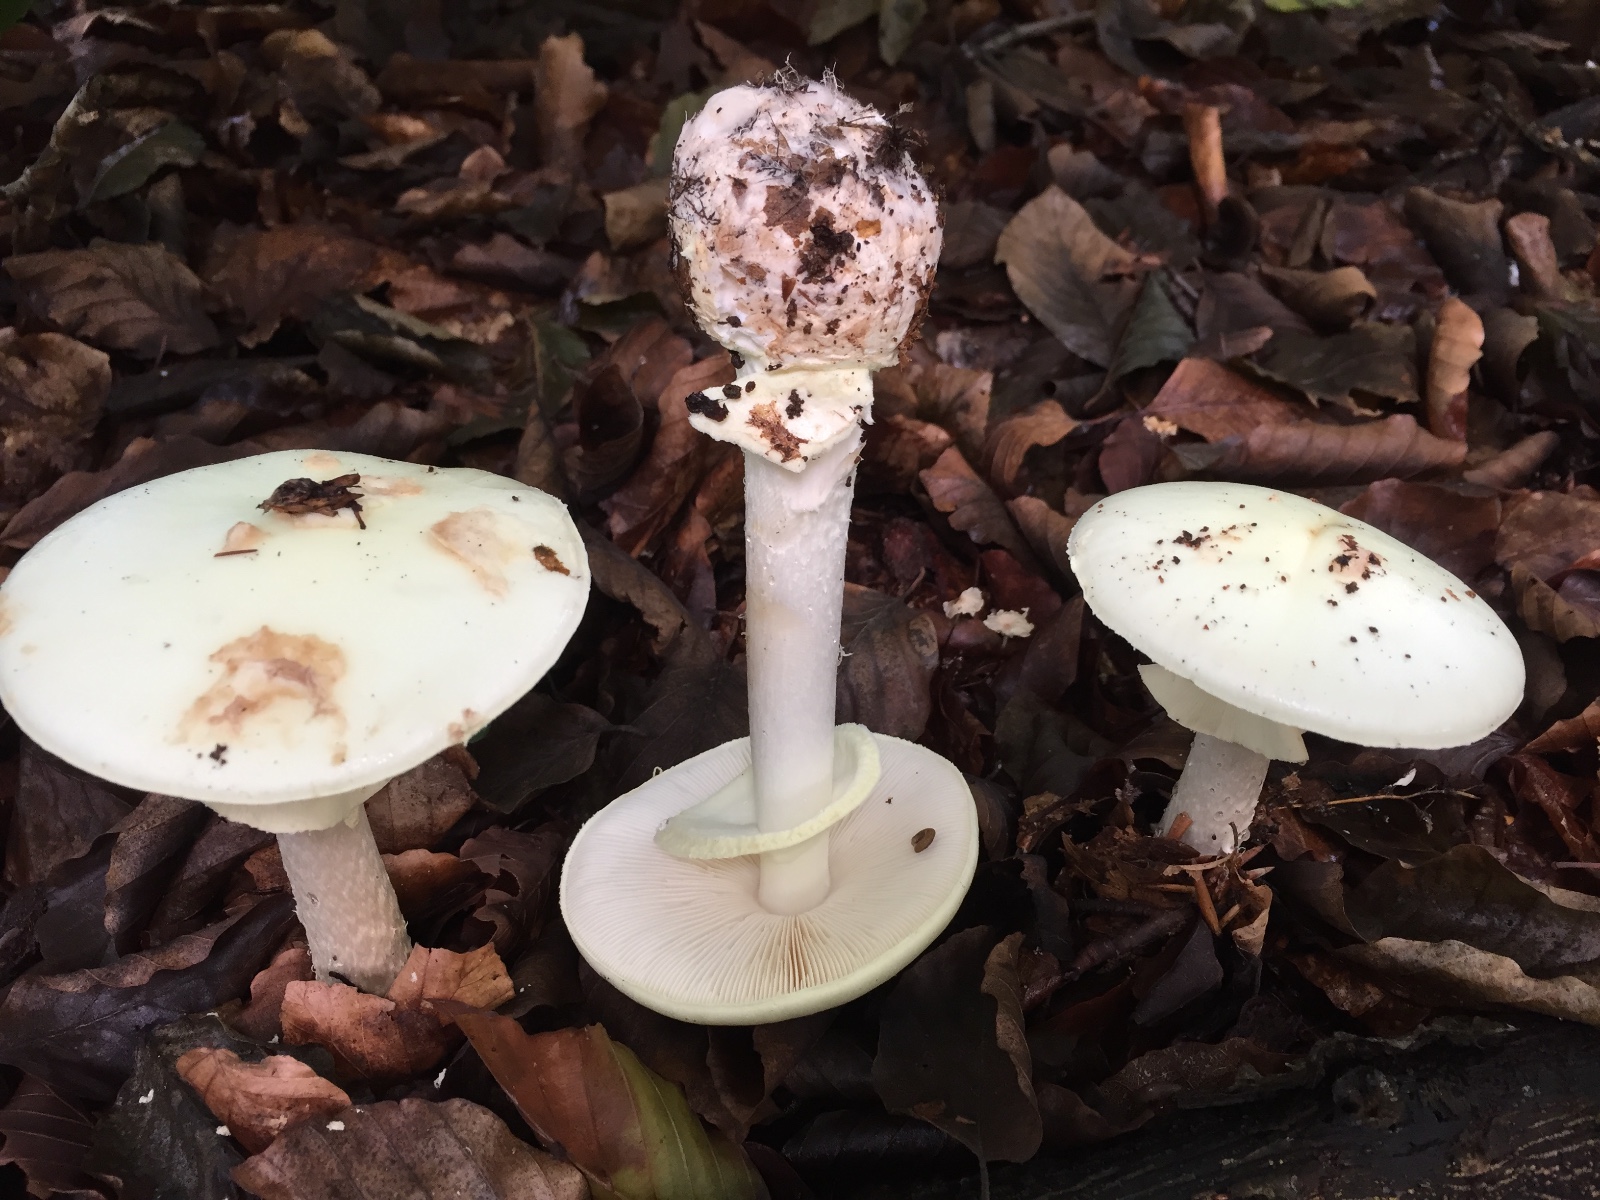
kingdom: Fungi
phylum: Basidiomycota
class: Agaricomycetes
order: Agaricales
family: Amanitaceae
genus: Amanita
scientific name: Amanita citrina
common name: kugleknoldet fluesvamp
